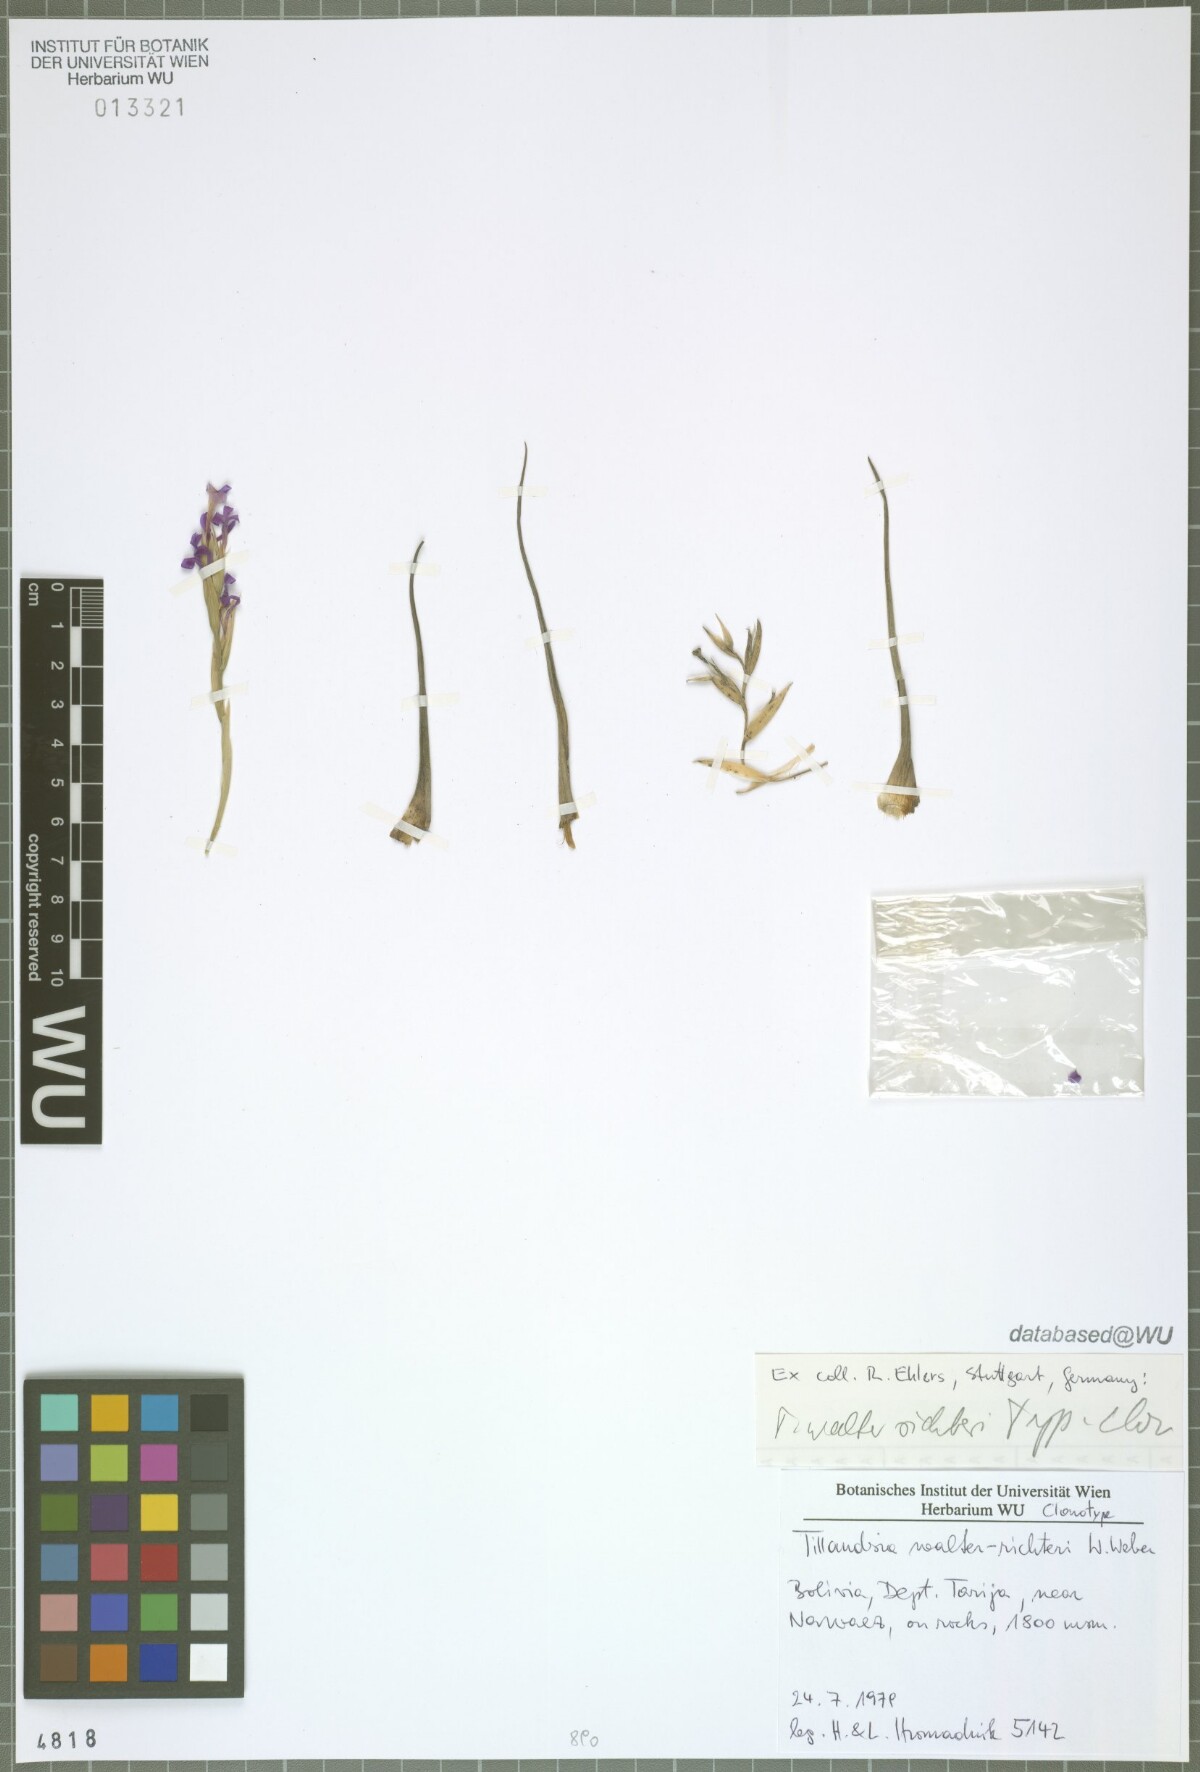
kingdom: Plantae
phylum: Tracheophyta
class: Liliopsida
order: Poales
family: Bromeliaceae
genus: Tillandsia
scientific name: Tillandsia walter-richteri
